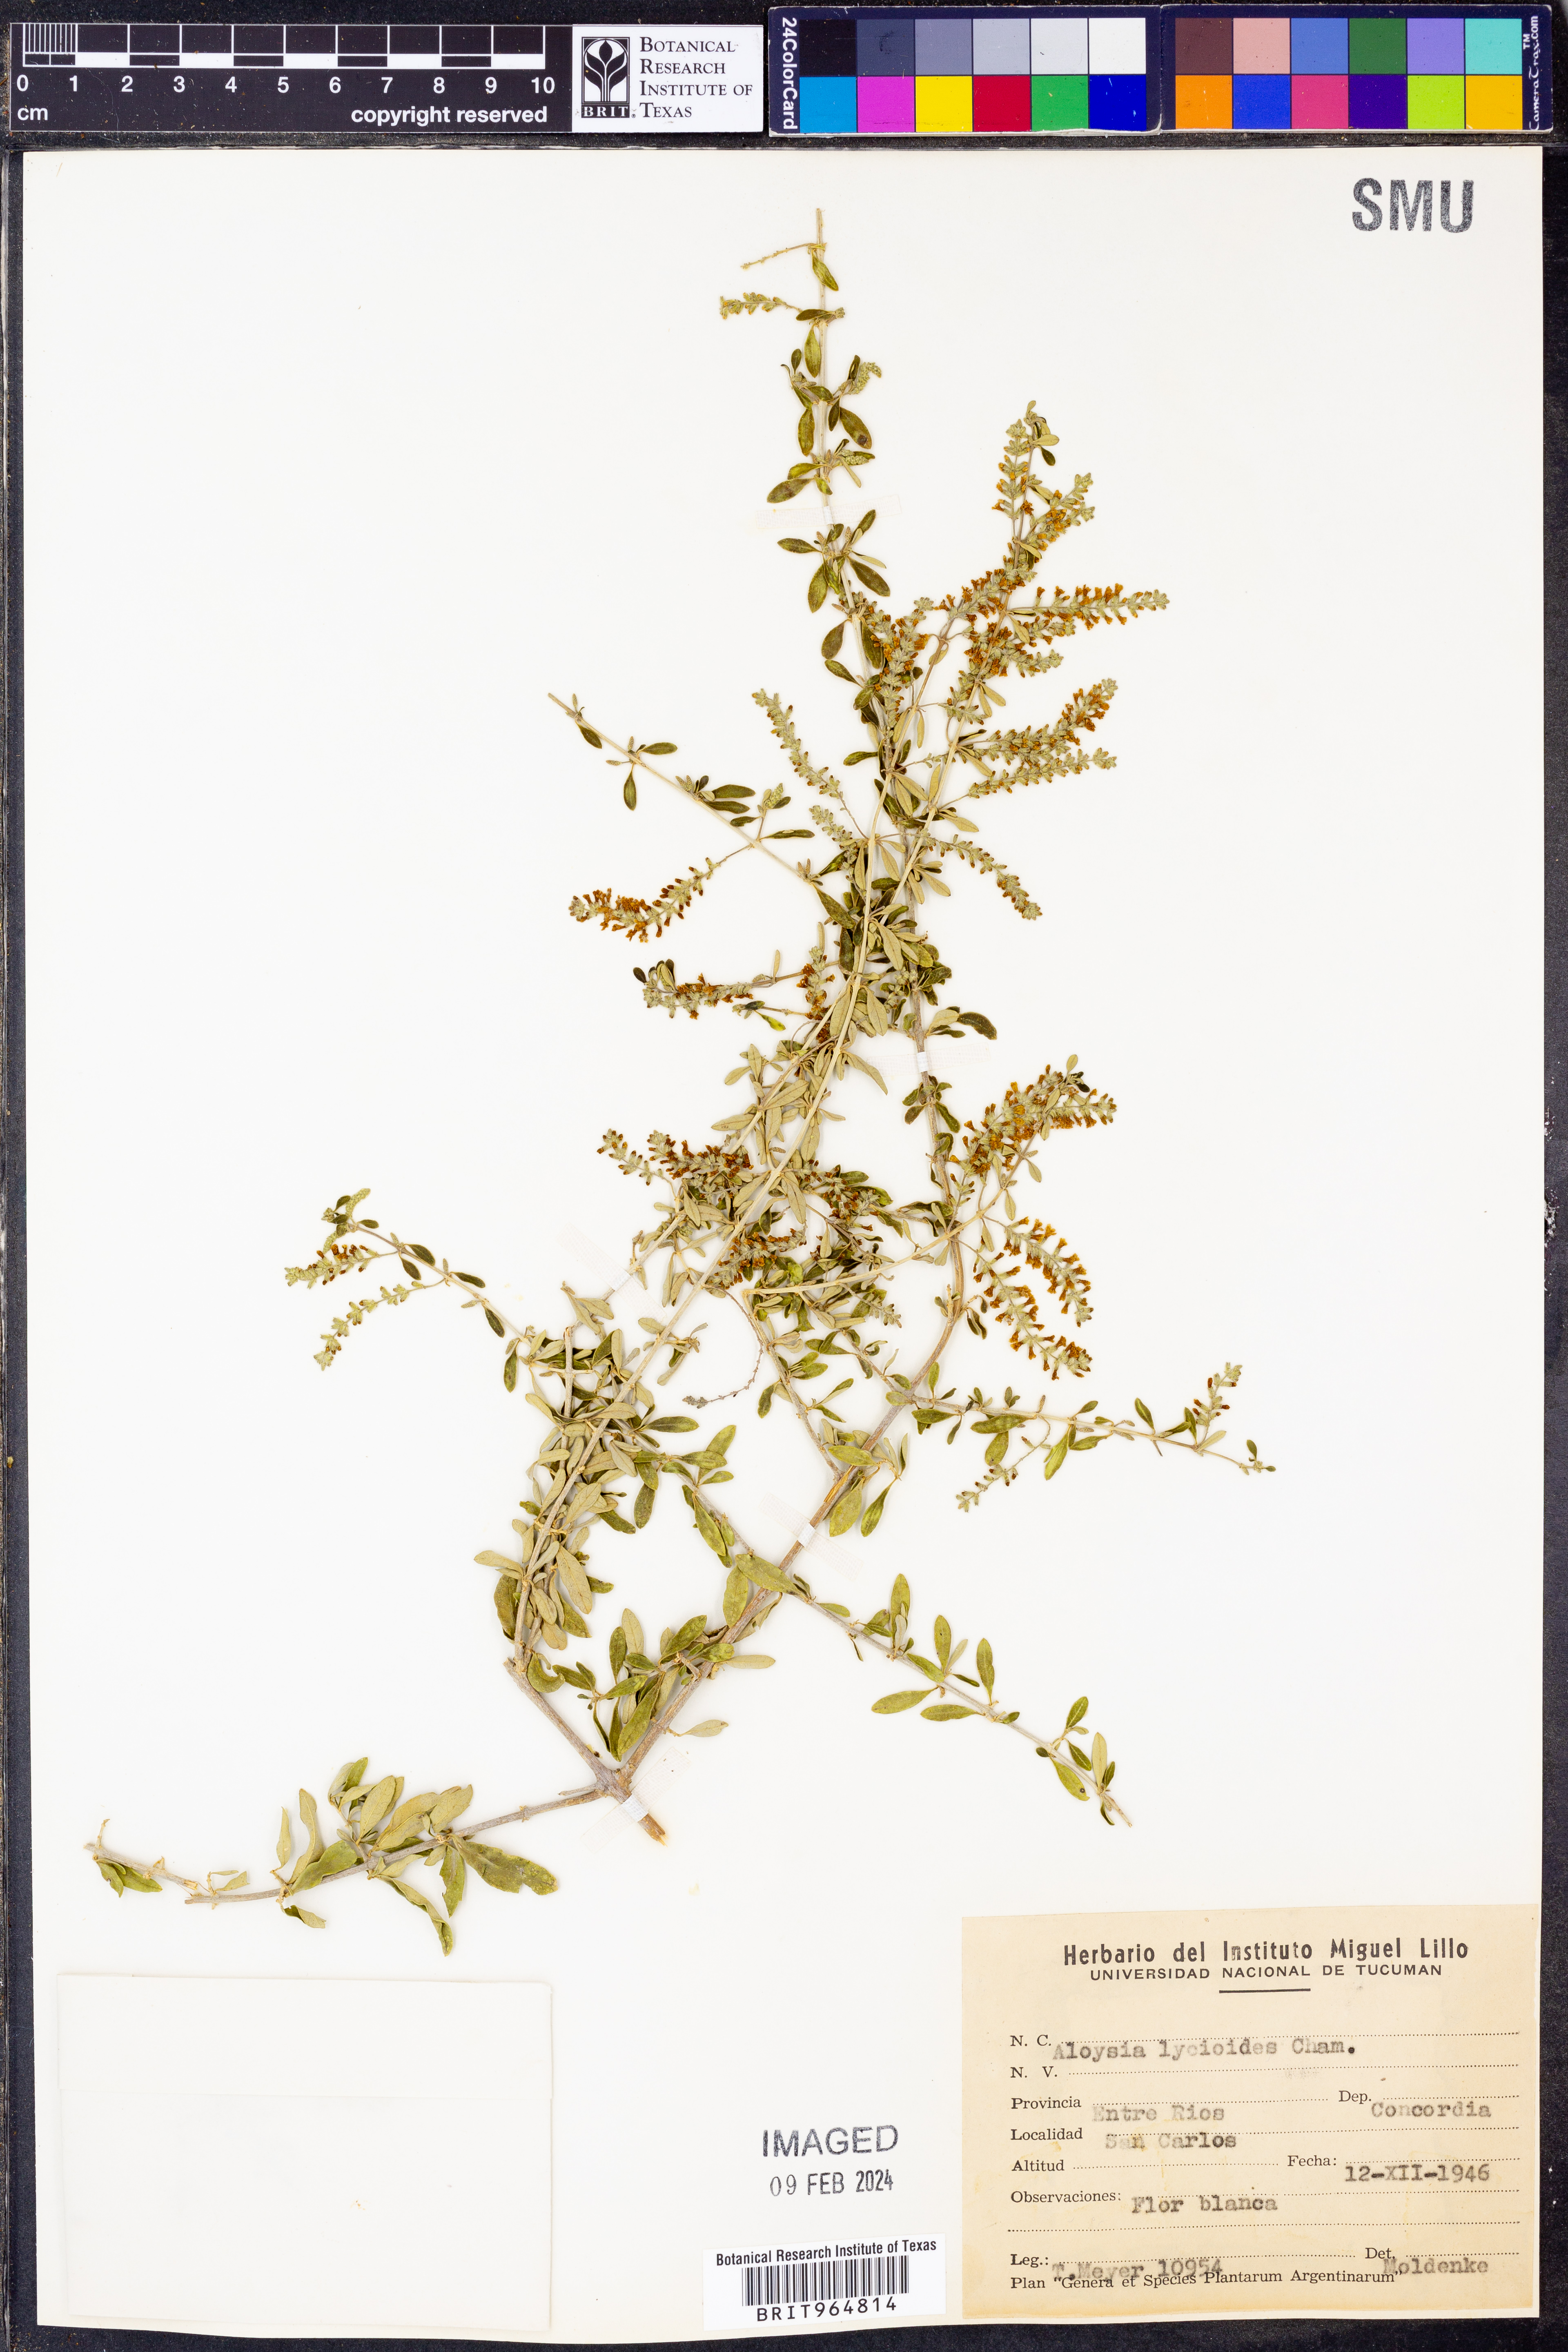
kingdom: Plantae
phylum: Tracheophyta
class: Magnoliopsida
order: Lamiales
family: Verbenaceae
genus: Aloysia
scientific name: Aloysia
